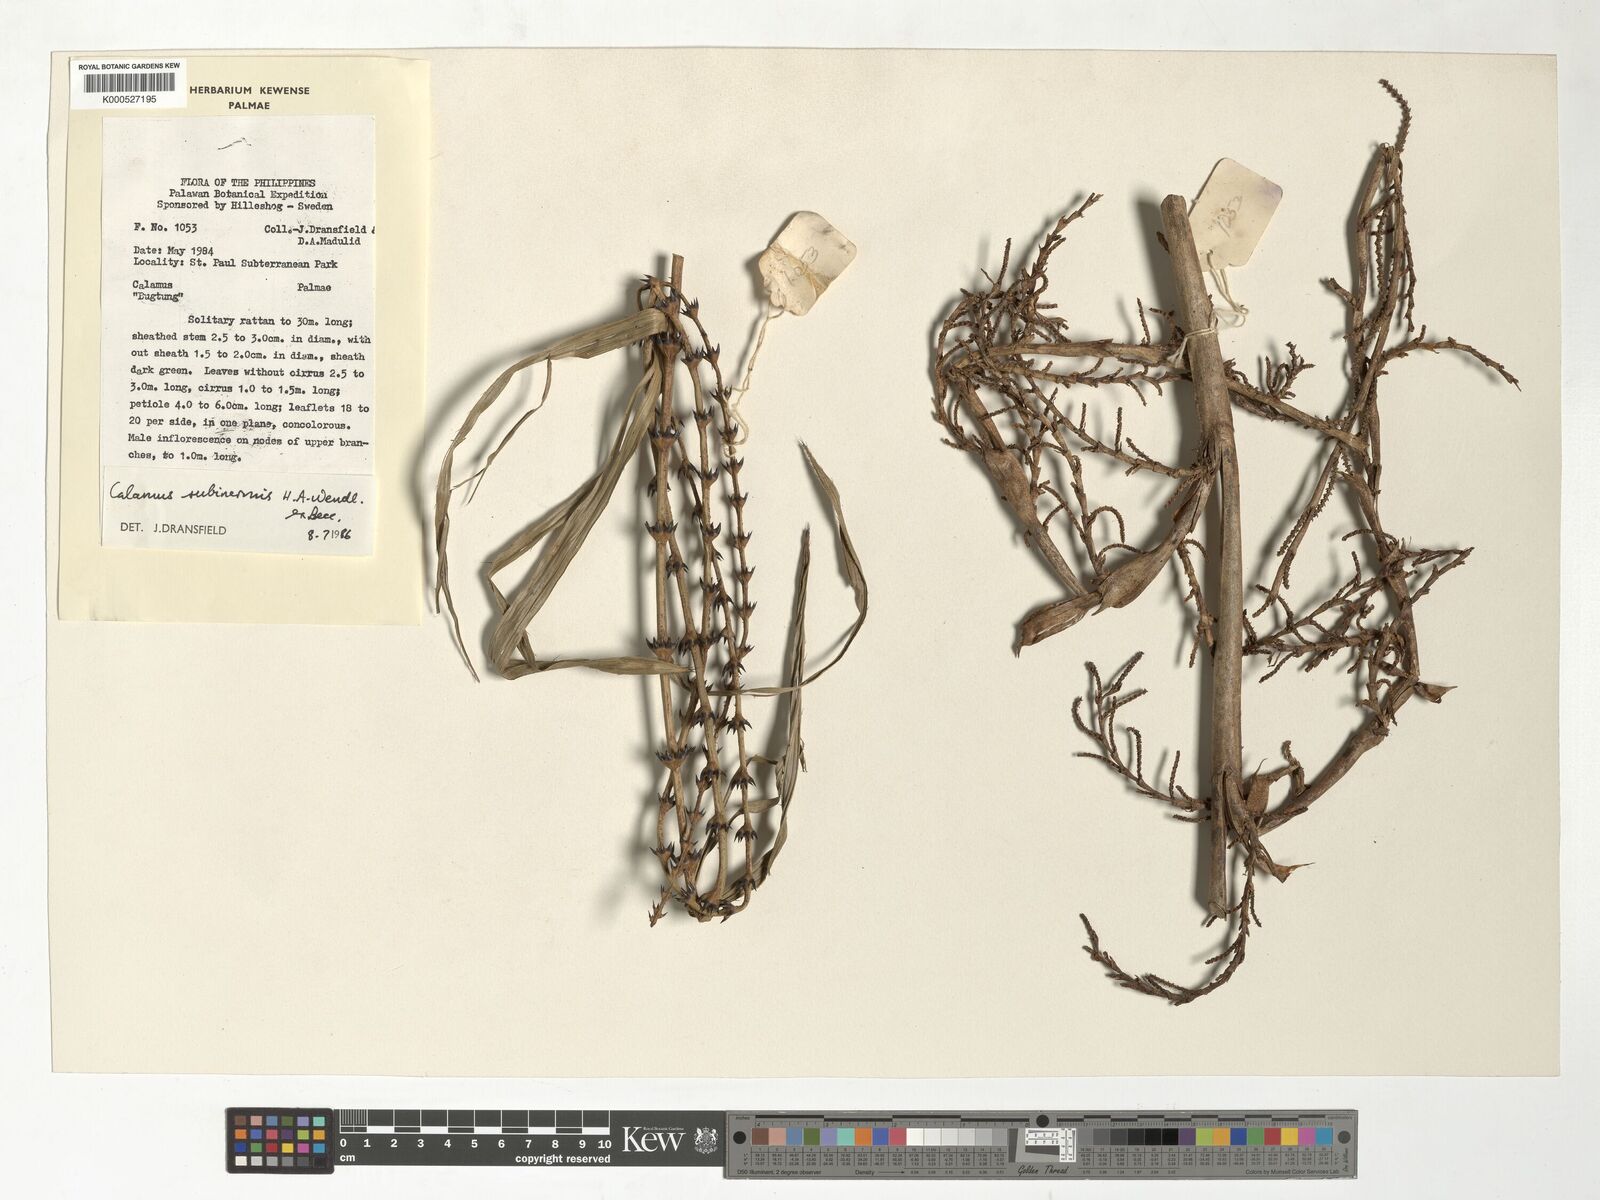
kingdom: Plantae
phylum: Tracheophyta
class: Liliopsida
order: Arecales
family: Arecaceae
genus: Calamus
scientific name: Calamus moseleyanus
